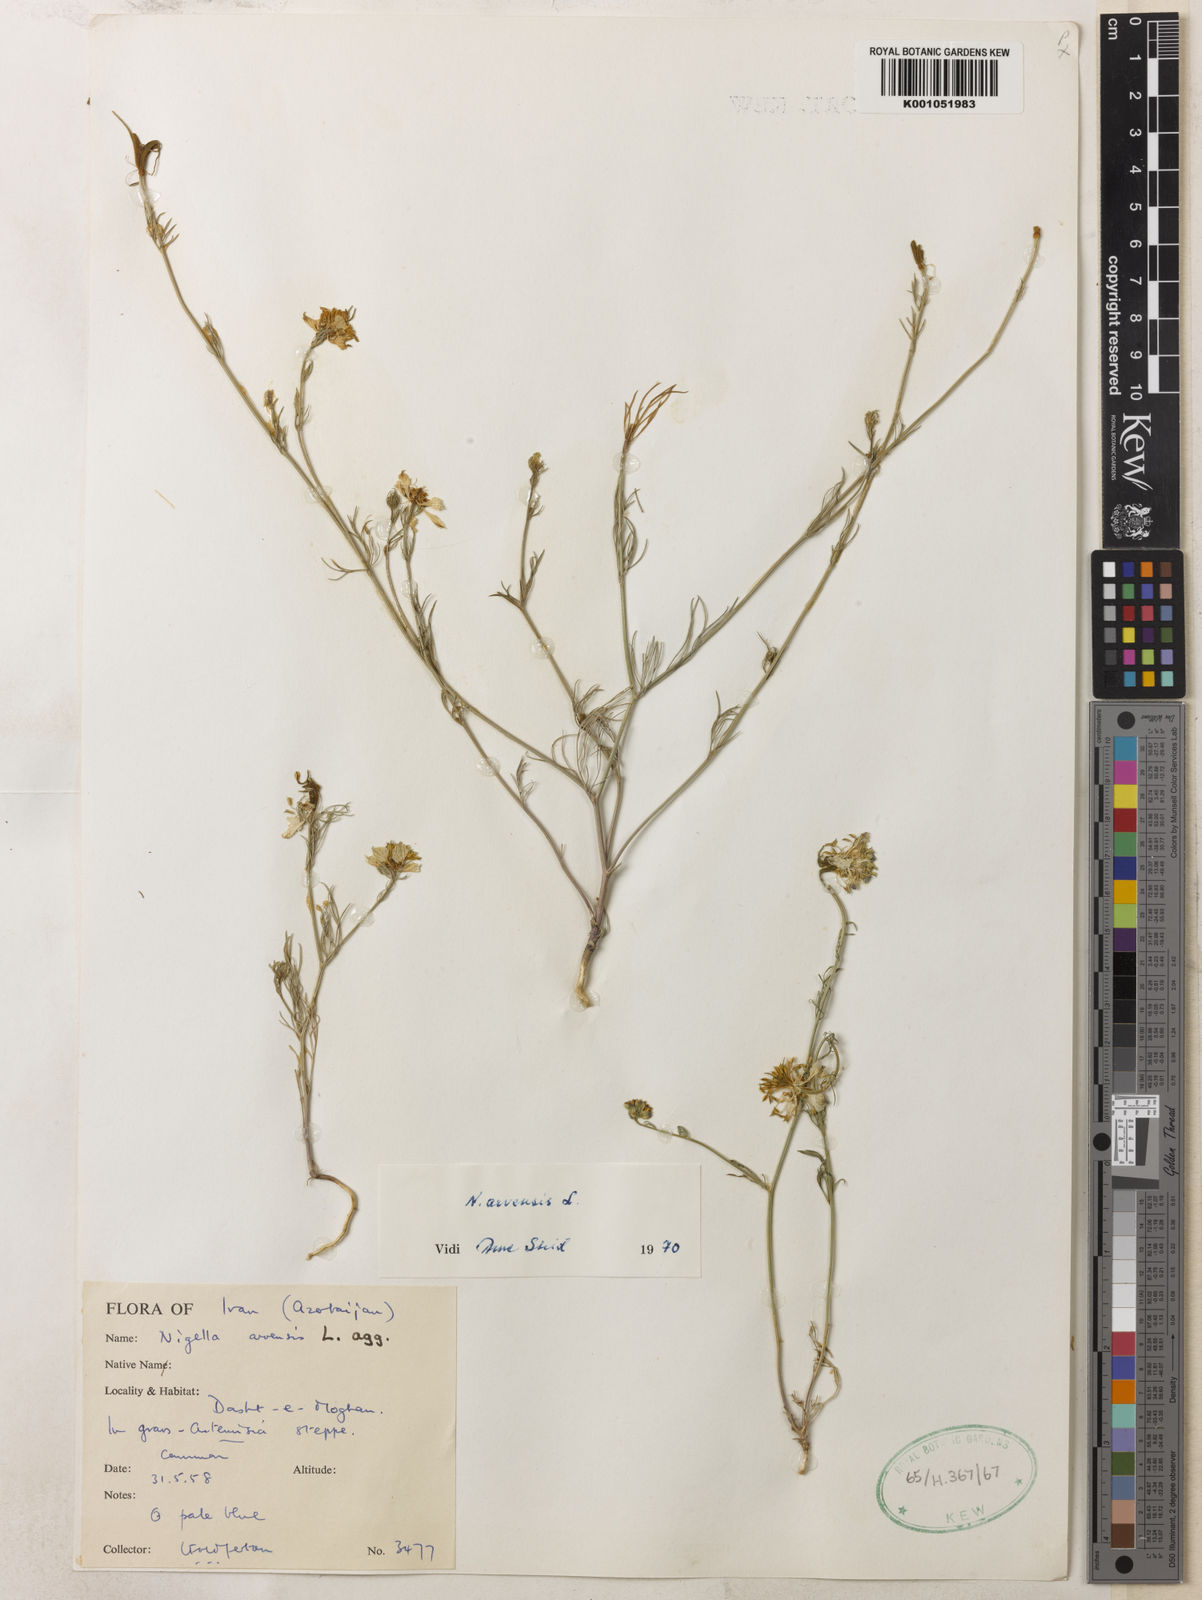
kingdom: Plantae
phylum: Tracheophyta
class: Magnoliopsida
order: Ranunculales
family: Ranunculaceae
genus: Nigella
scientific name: Nigella deserti
